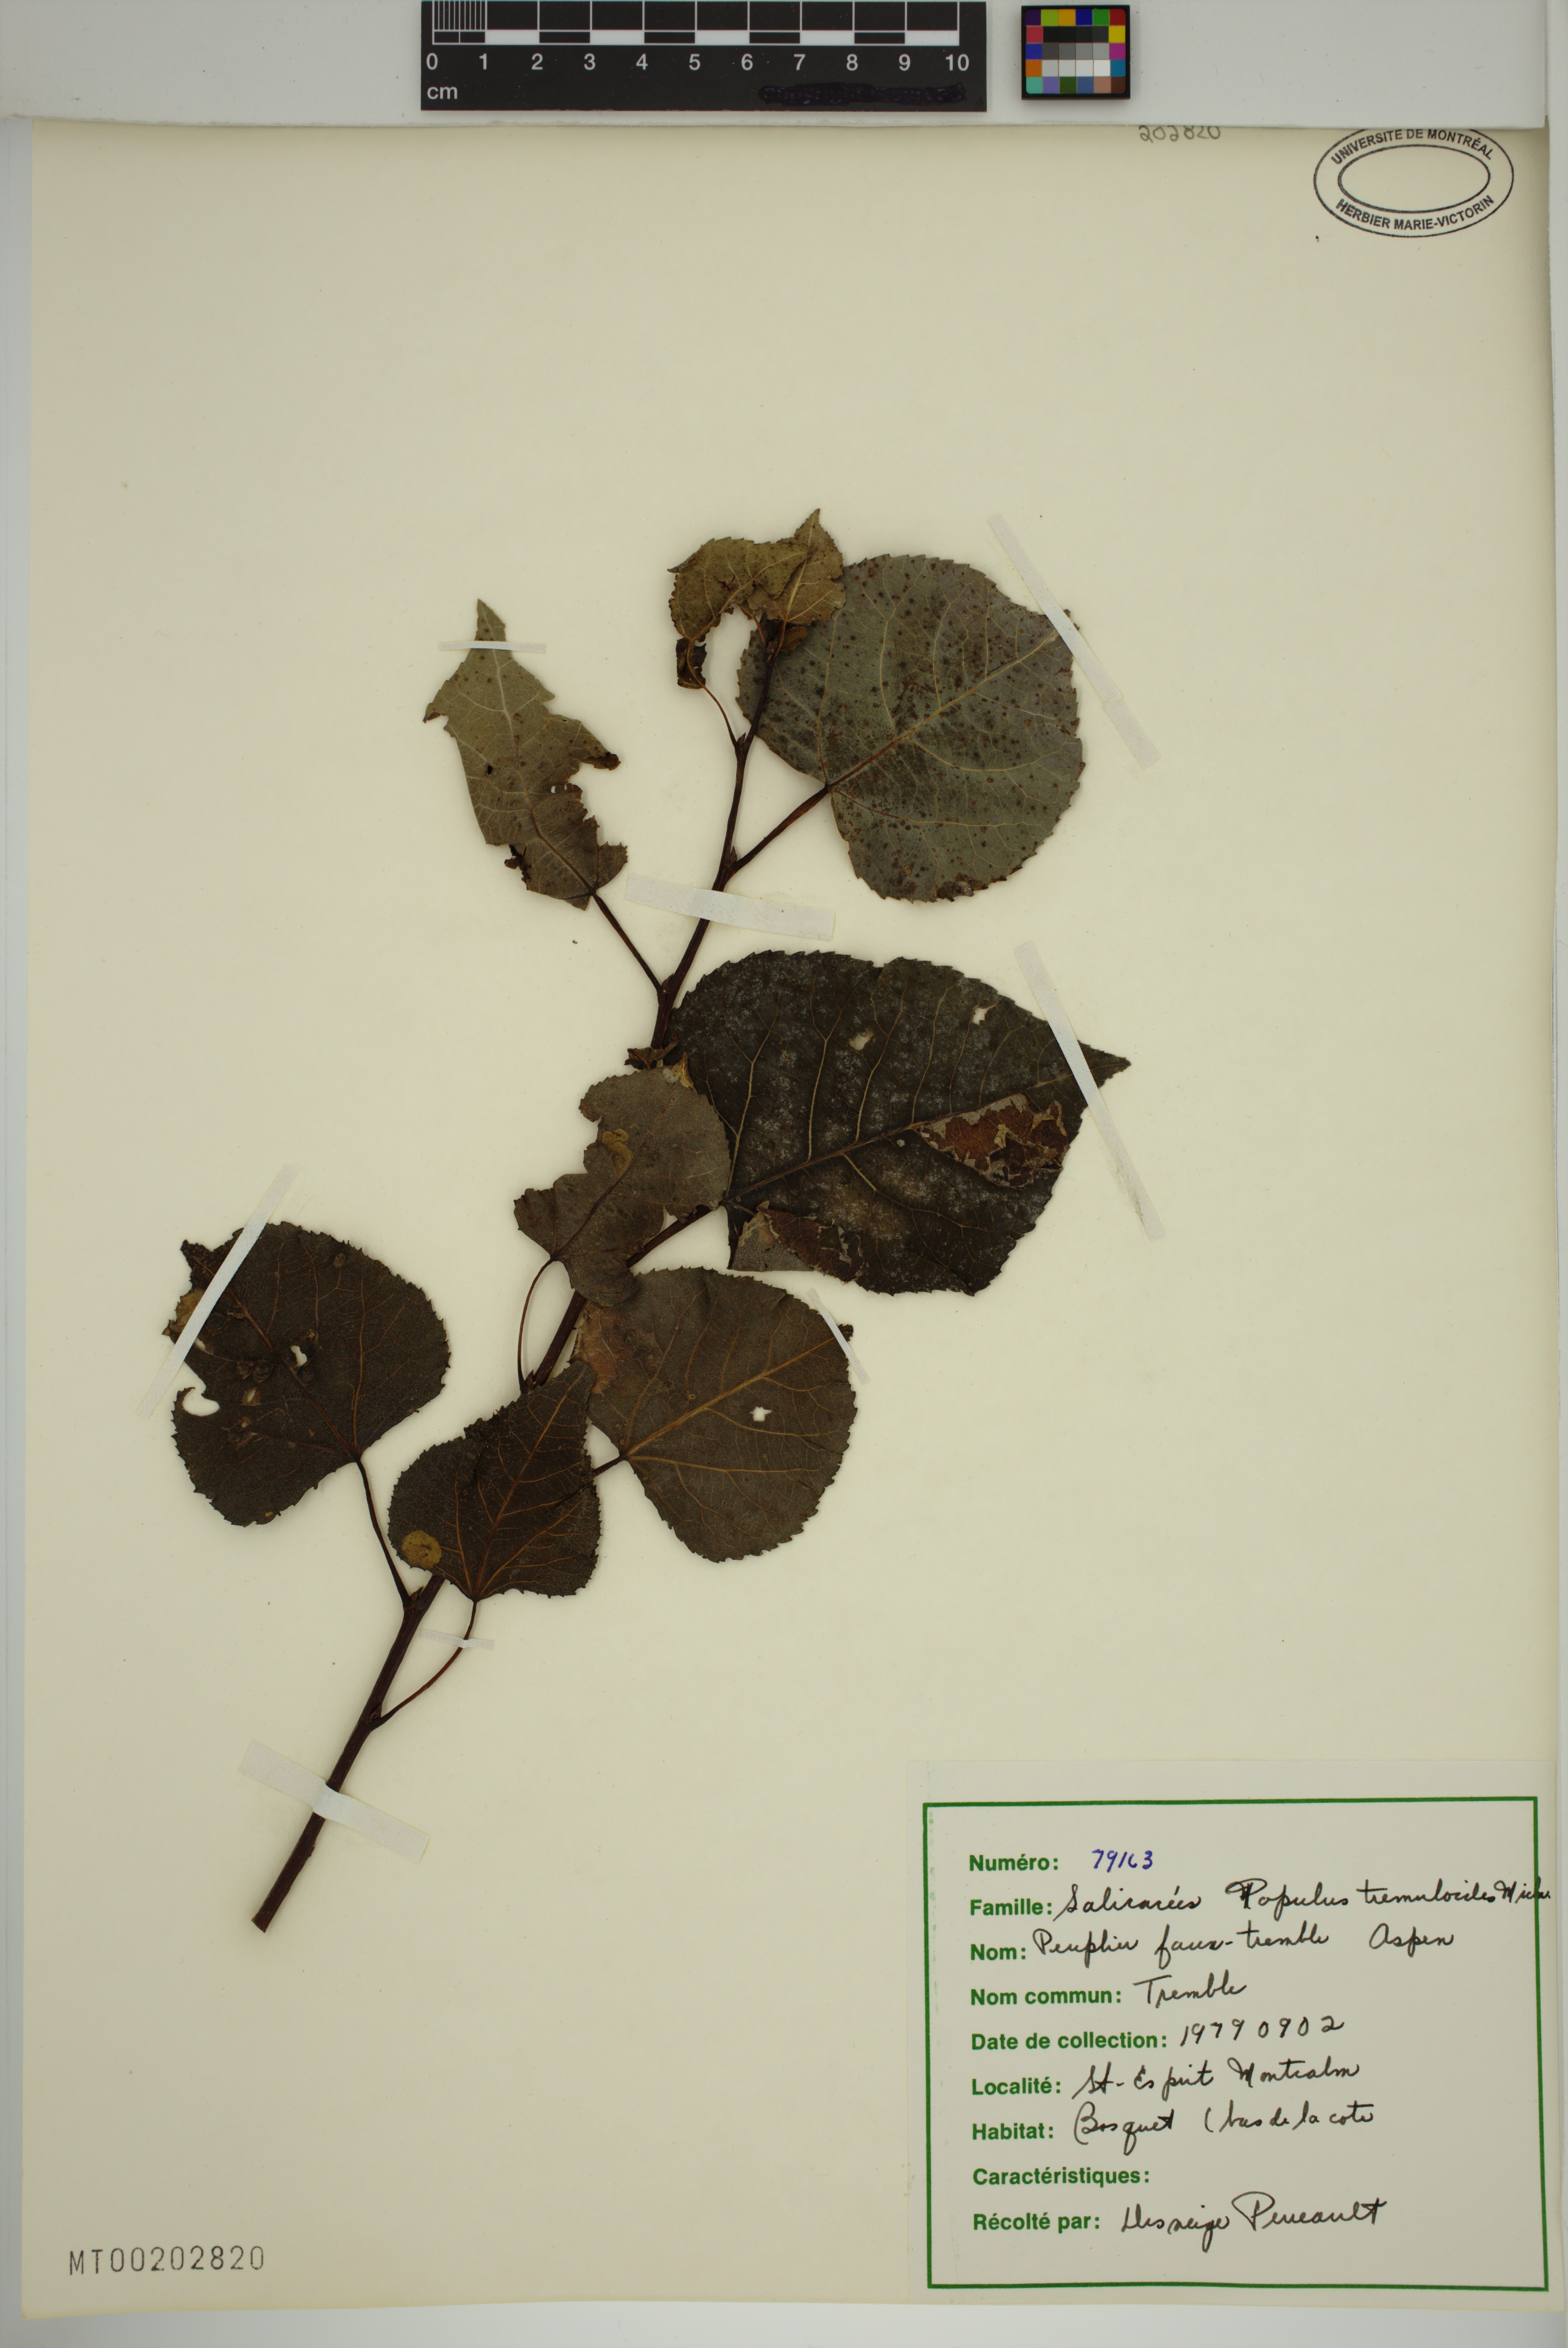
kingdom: Plantae
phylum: Tracheophyta
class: Magnoliopsida
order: Malpighiales
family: Salicaceae
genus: Populus
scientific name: Populus tremuloides
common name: Quaking aspen
